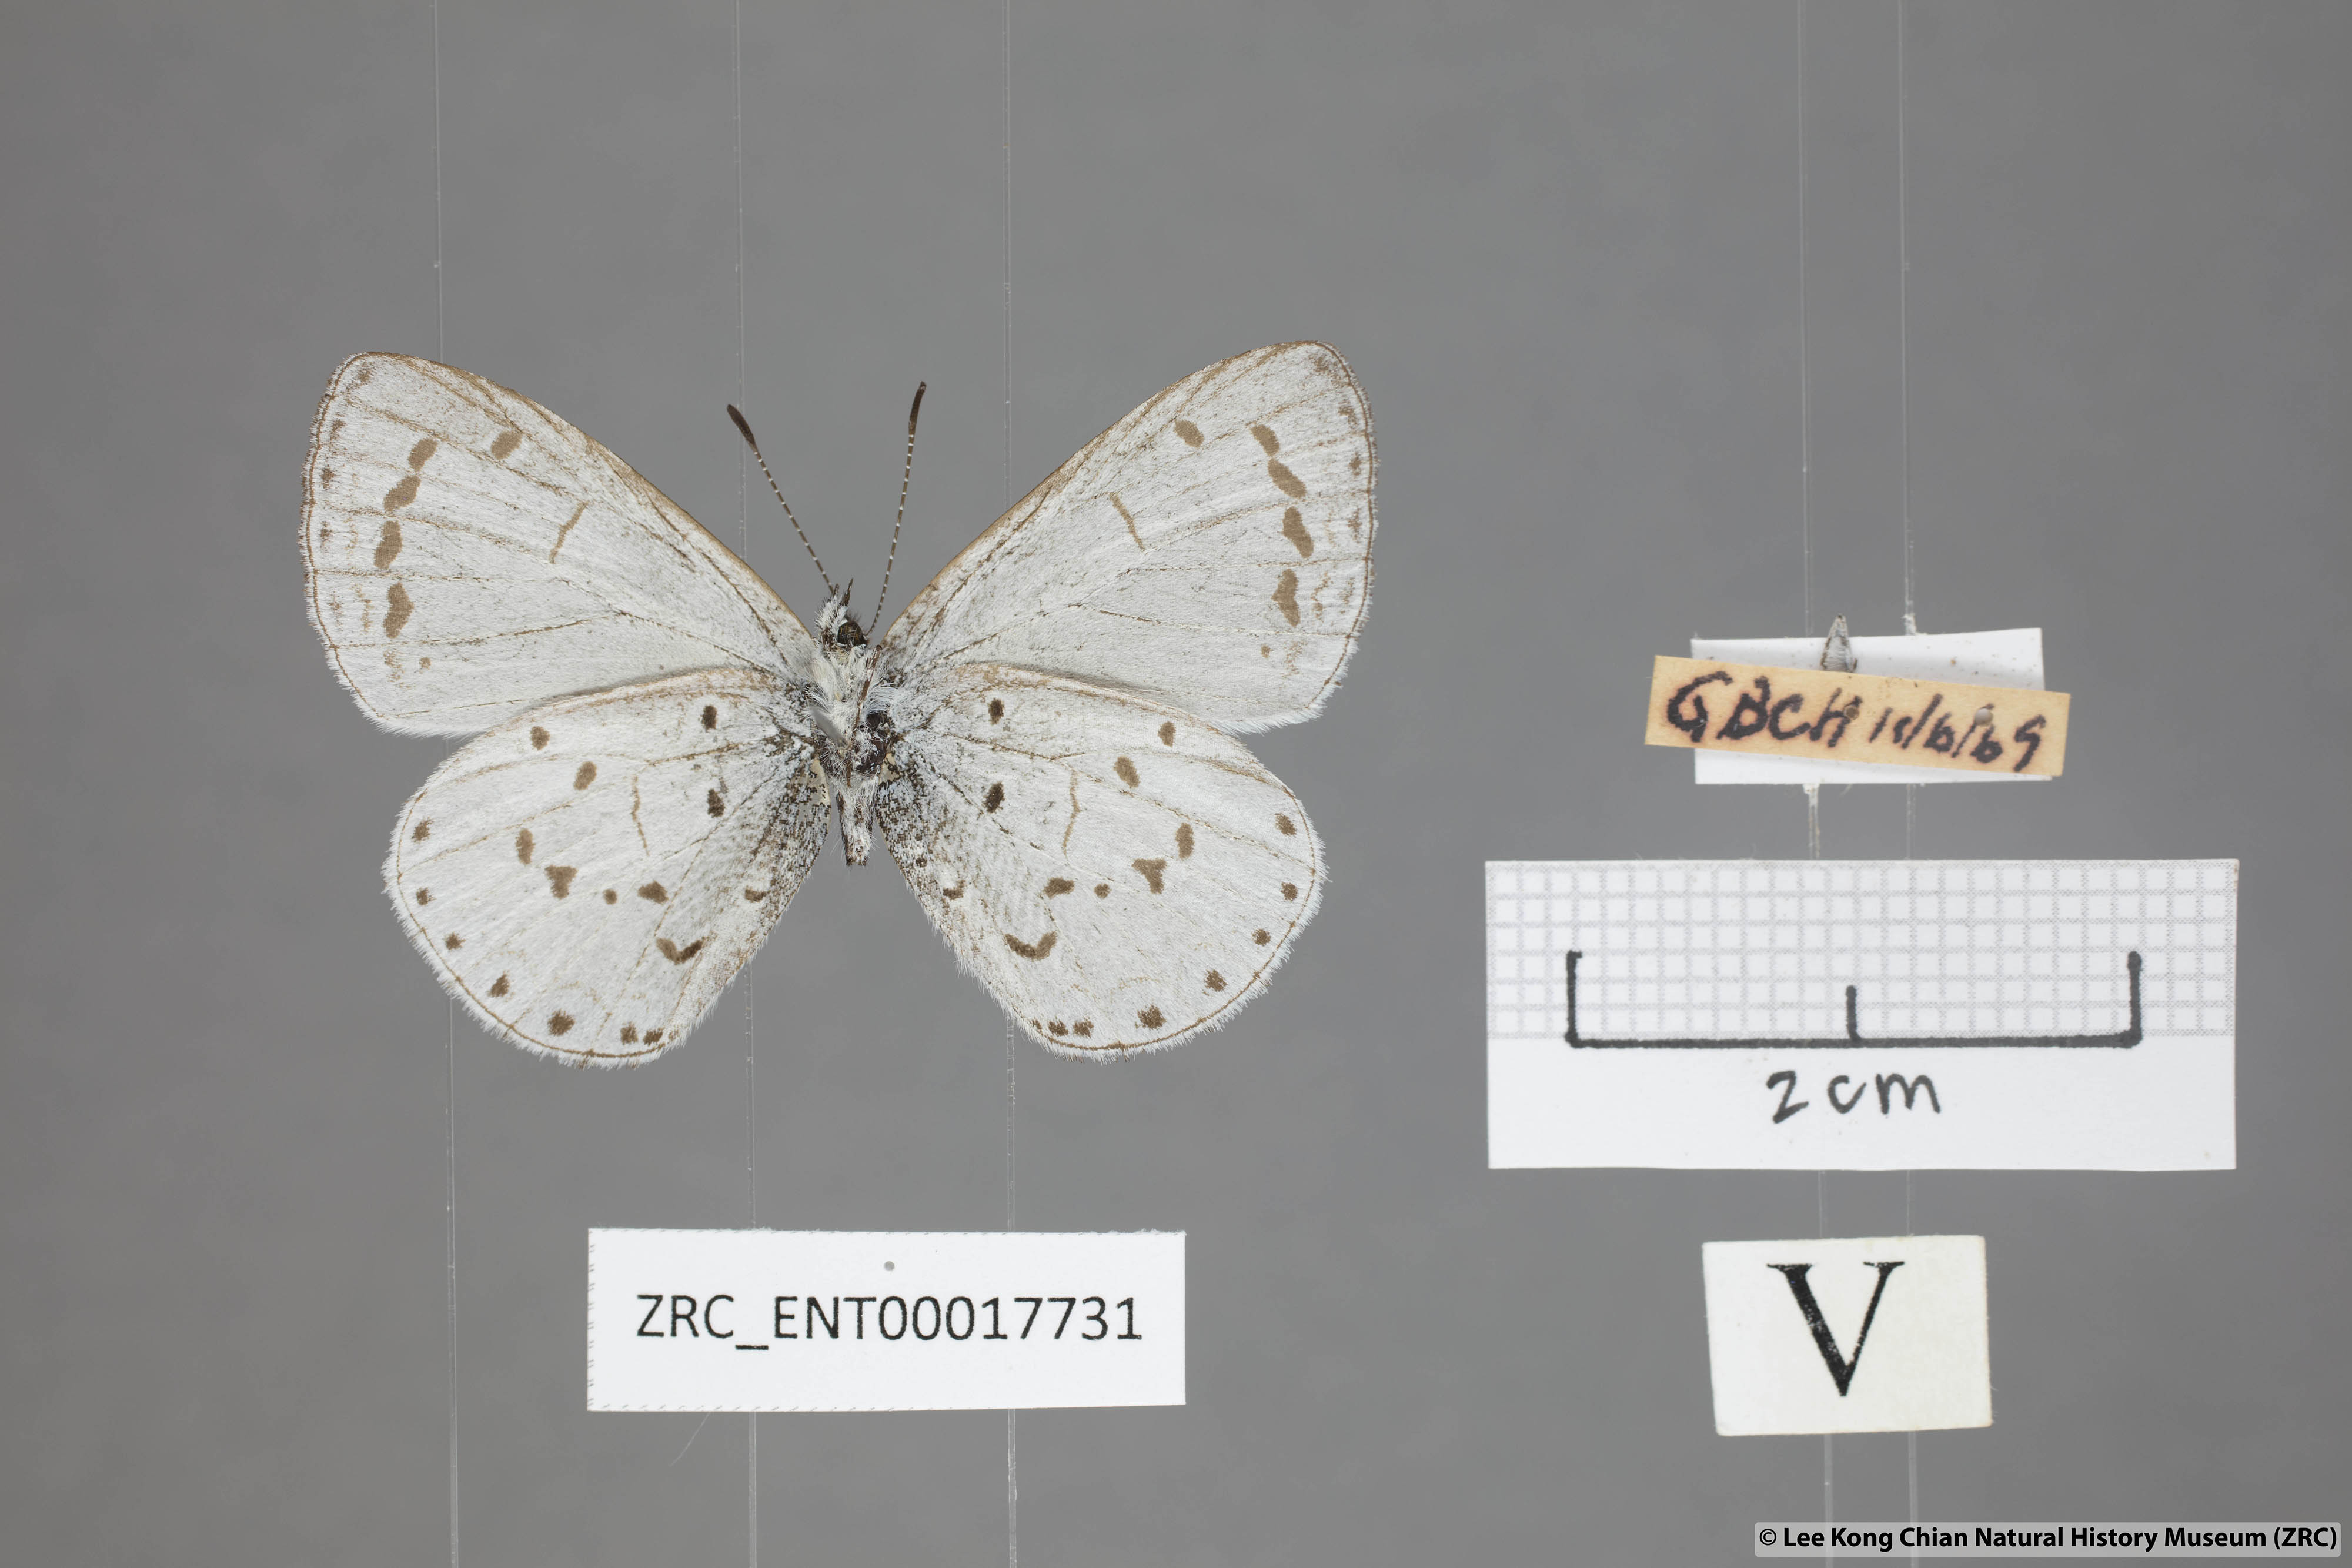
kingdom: Animalia
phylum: Arthropoda
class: Insecta
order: Lepidoptera
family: Lycaenidae
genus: Udara
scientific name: Udara
